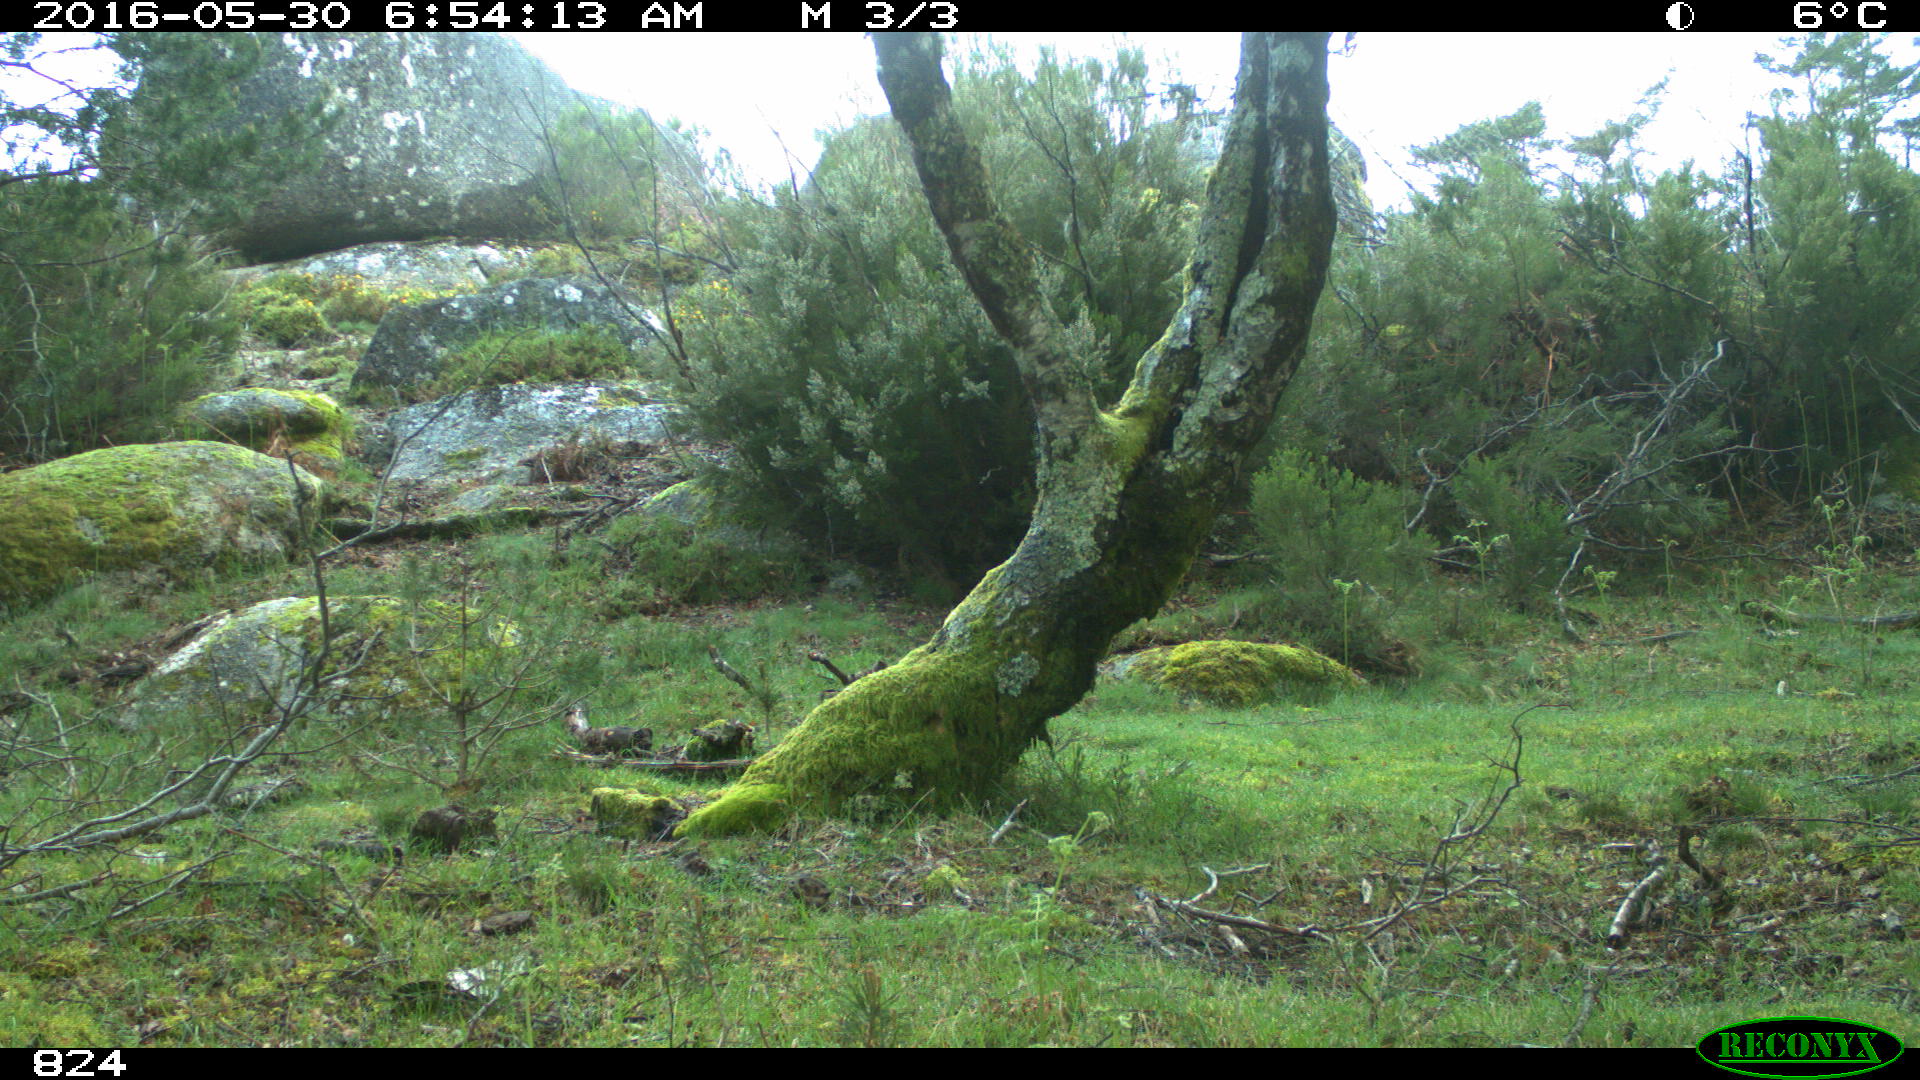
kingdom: Animalia
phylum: Chordata
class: Mammalia
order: Carnivora
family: Canidae
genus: Canis
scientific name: Canis lupus
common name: Gray wolf
